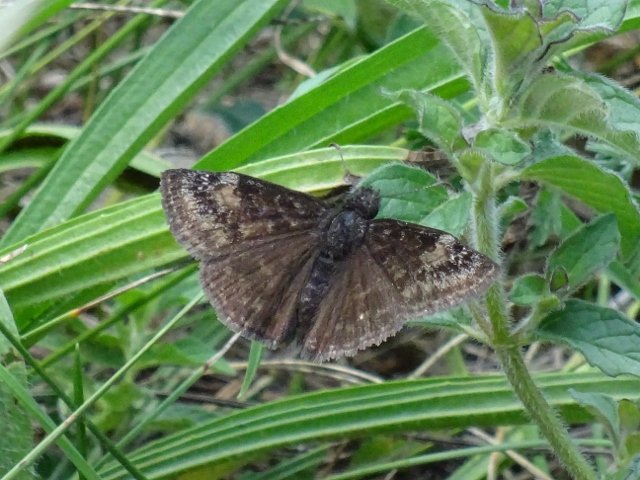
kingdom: Animalia
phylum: Arthropoda
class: Insecta
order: Lepidoptera
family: Hesperiidae
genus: Gesta
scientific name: Gesta
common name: Wild Indigo Duskywing
